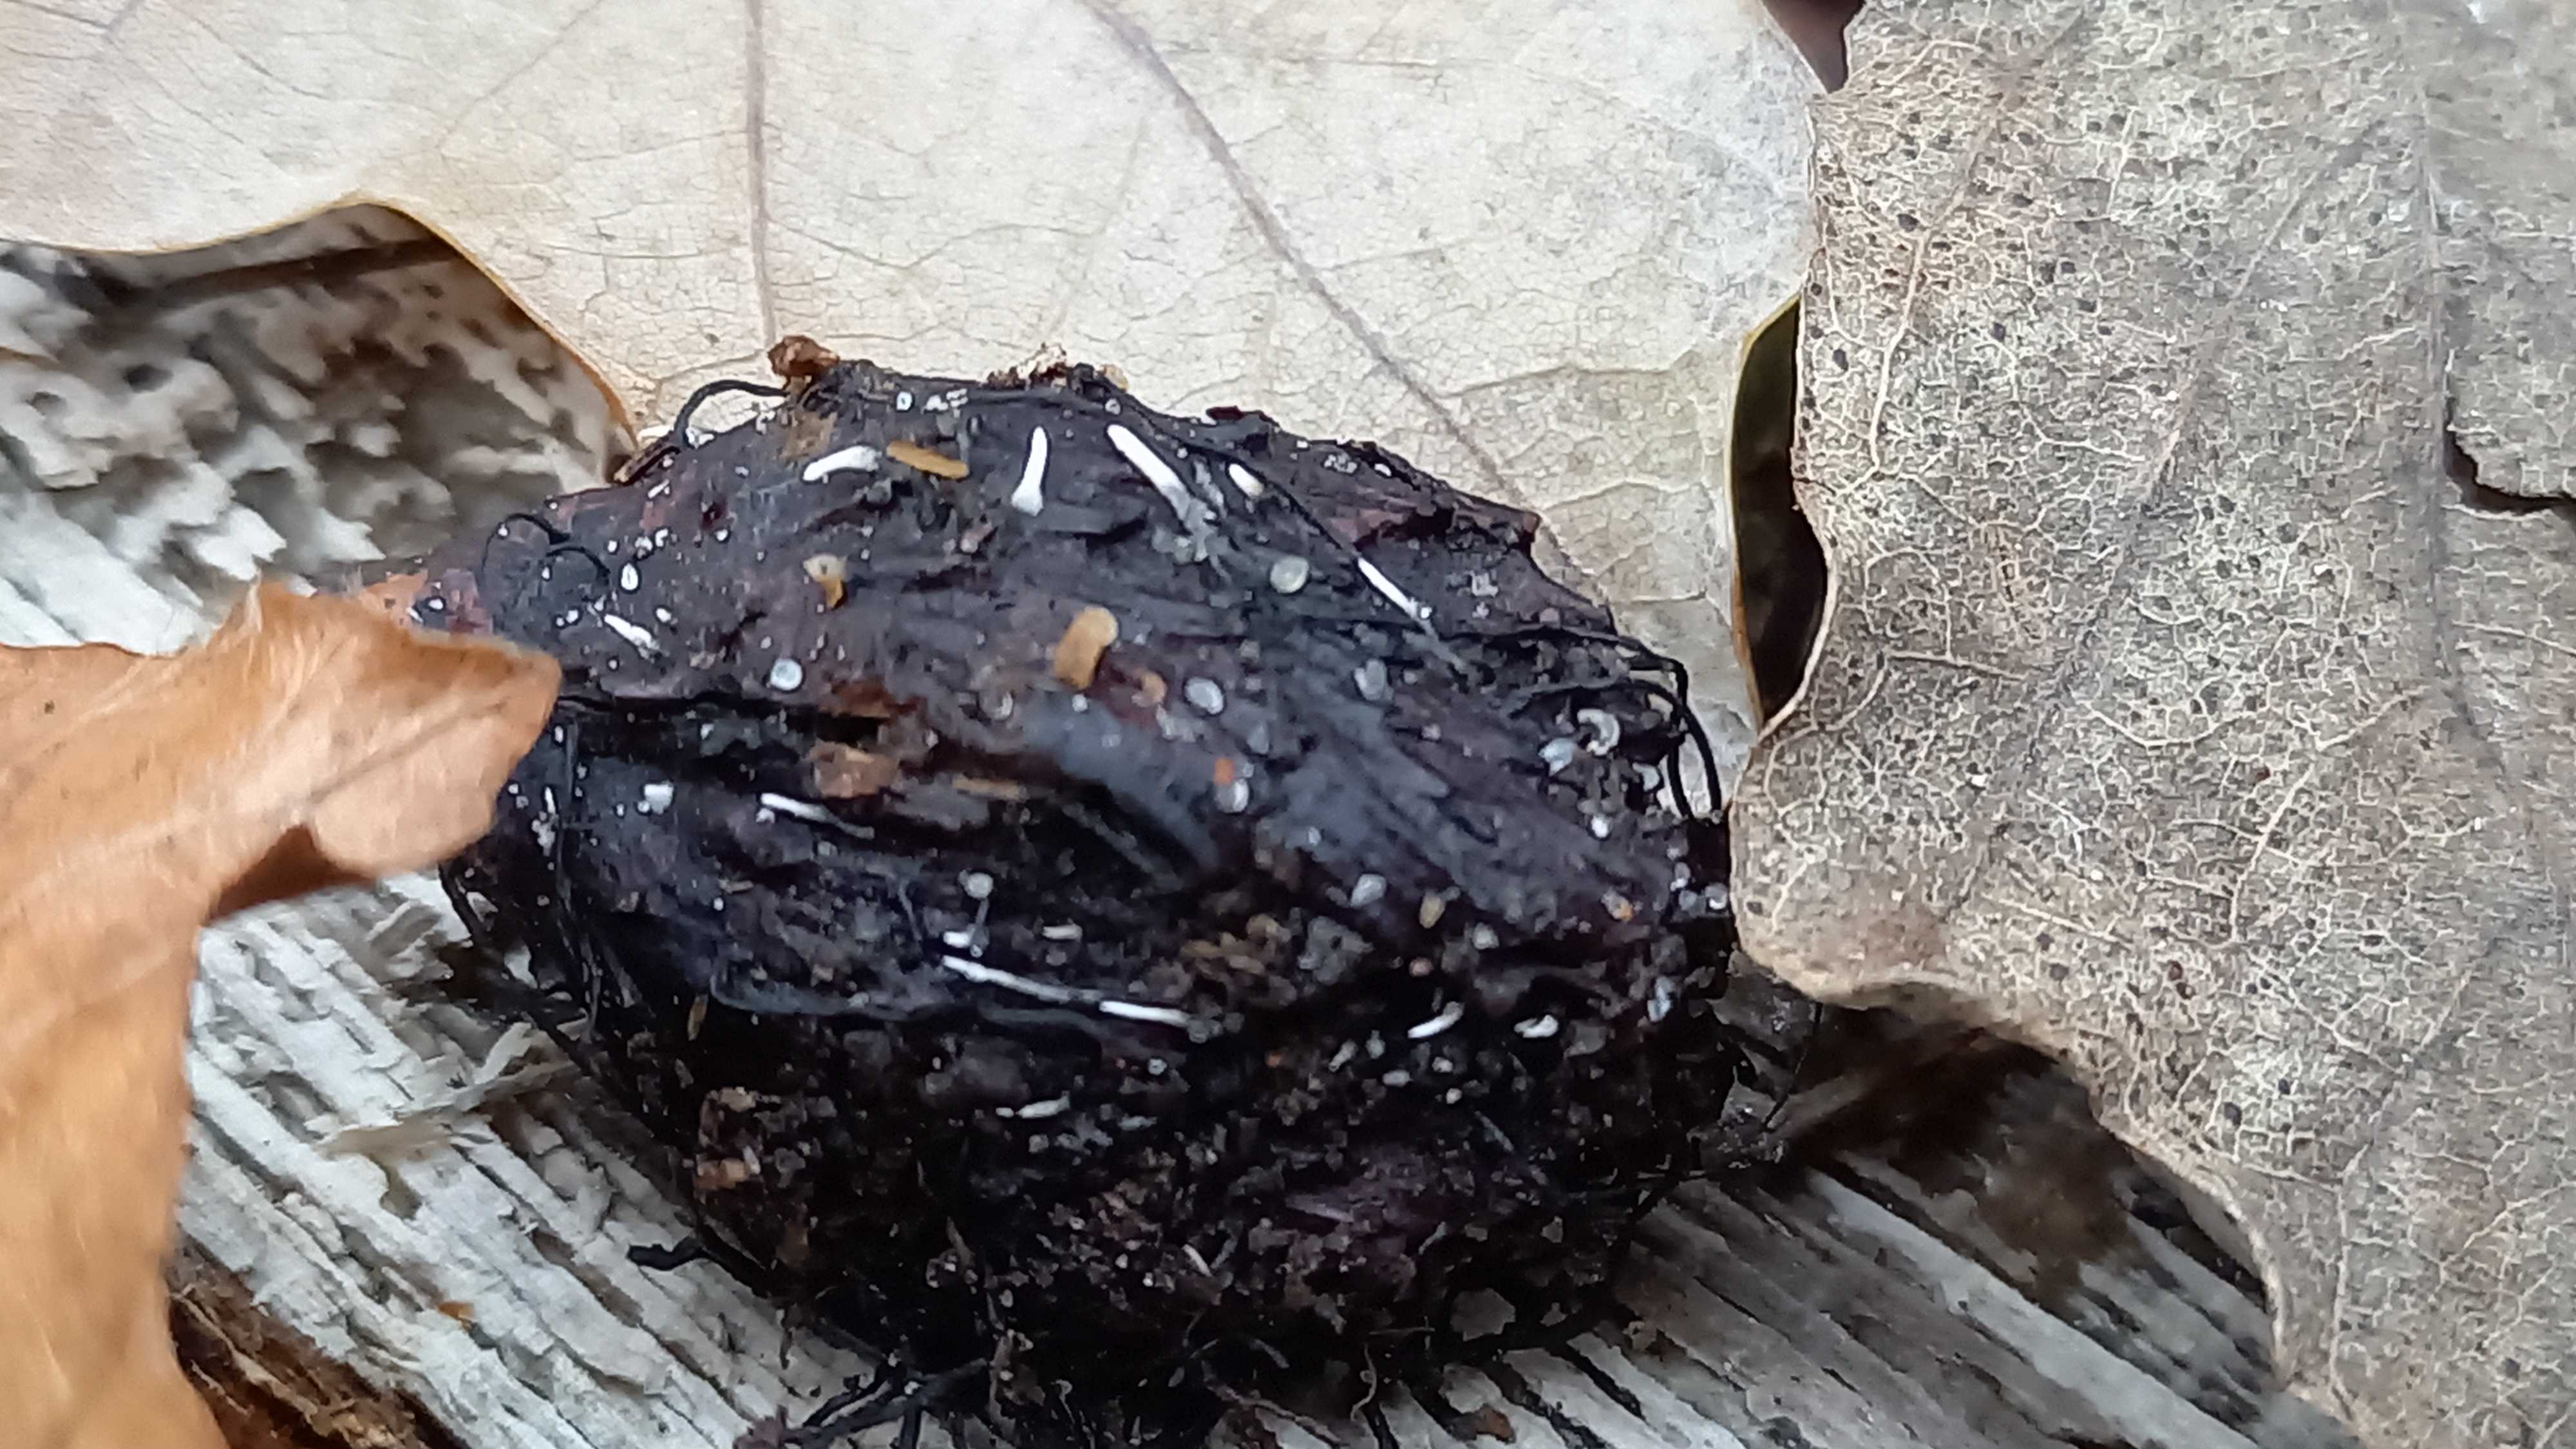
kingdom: Fungi
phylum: Ascomycota
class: Sordariomycetes
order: Xylariales
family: Xylariaceae
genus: Xylaria
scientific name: Xylaria carpophila
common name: bogskål-stødsvamp
